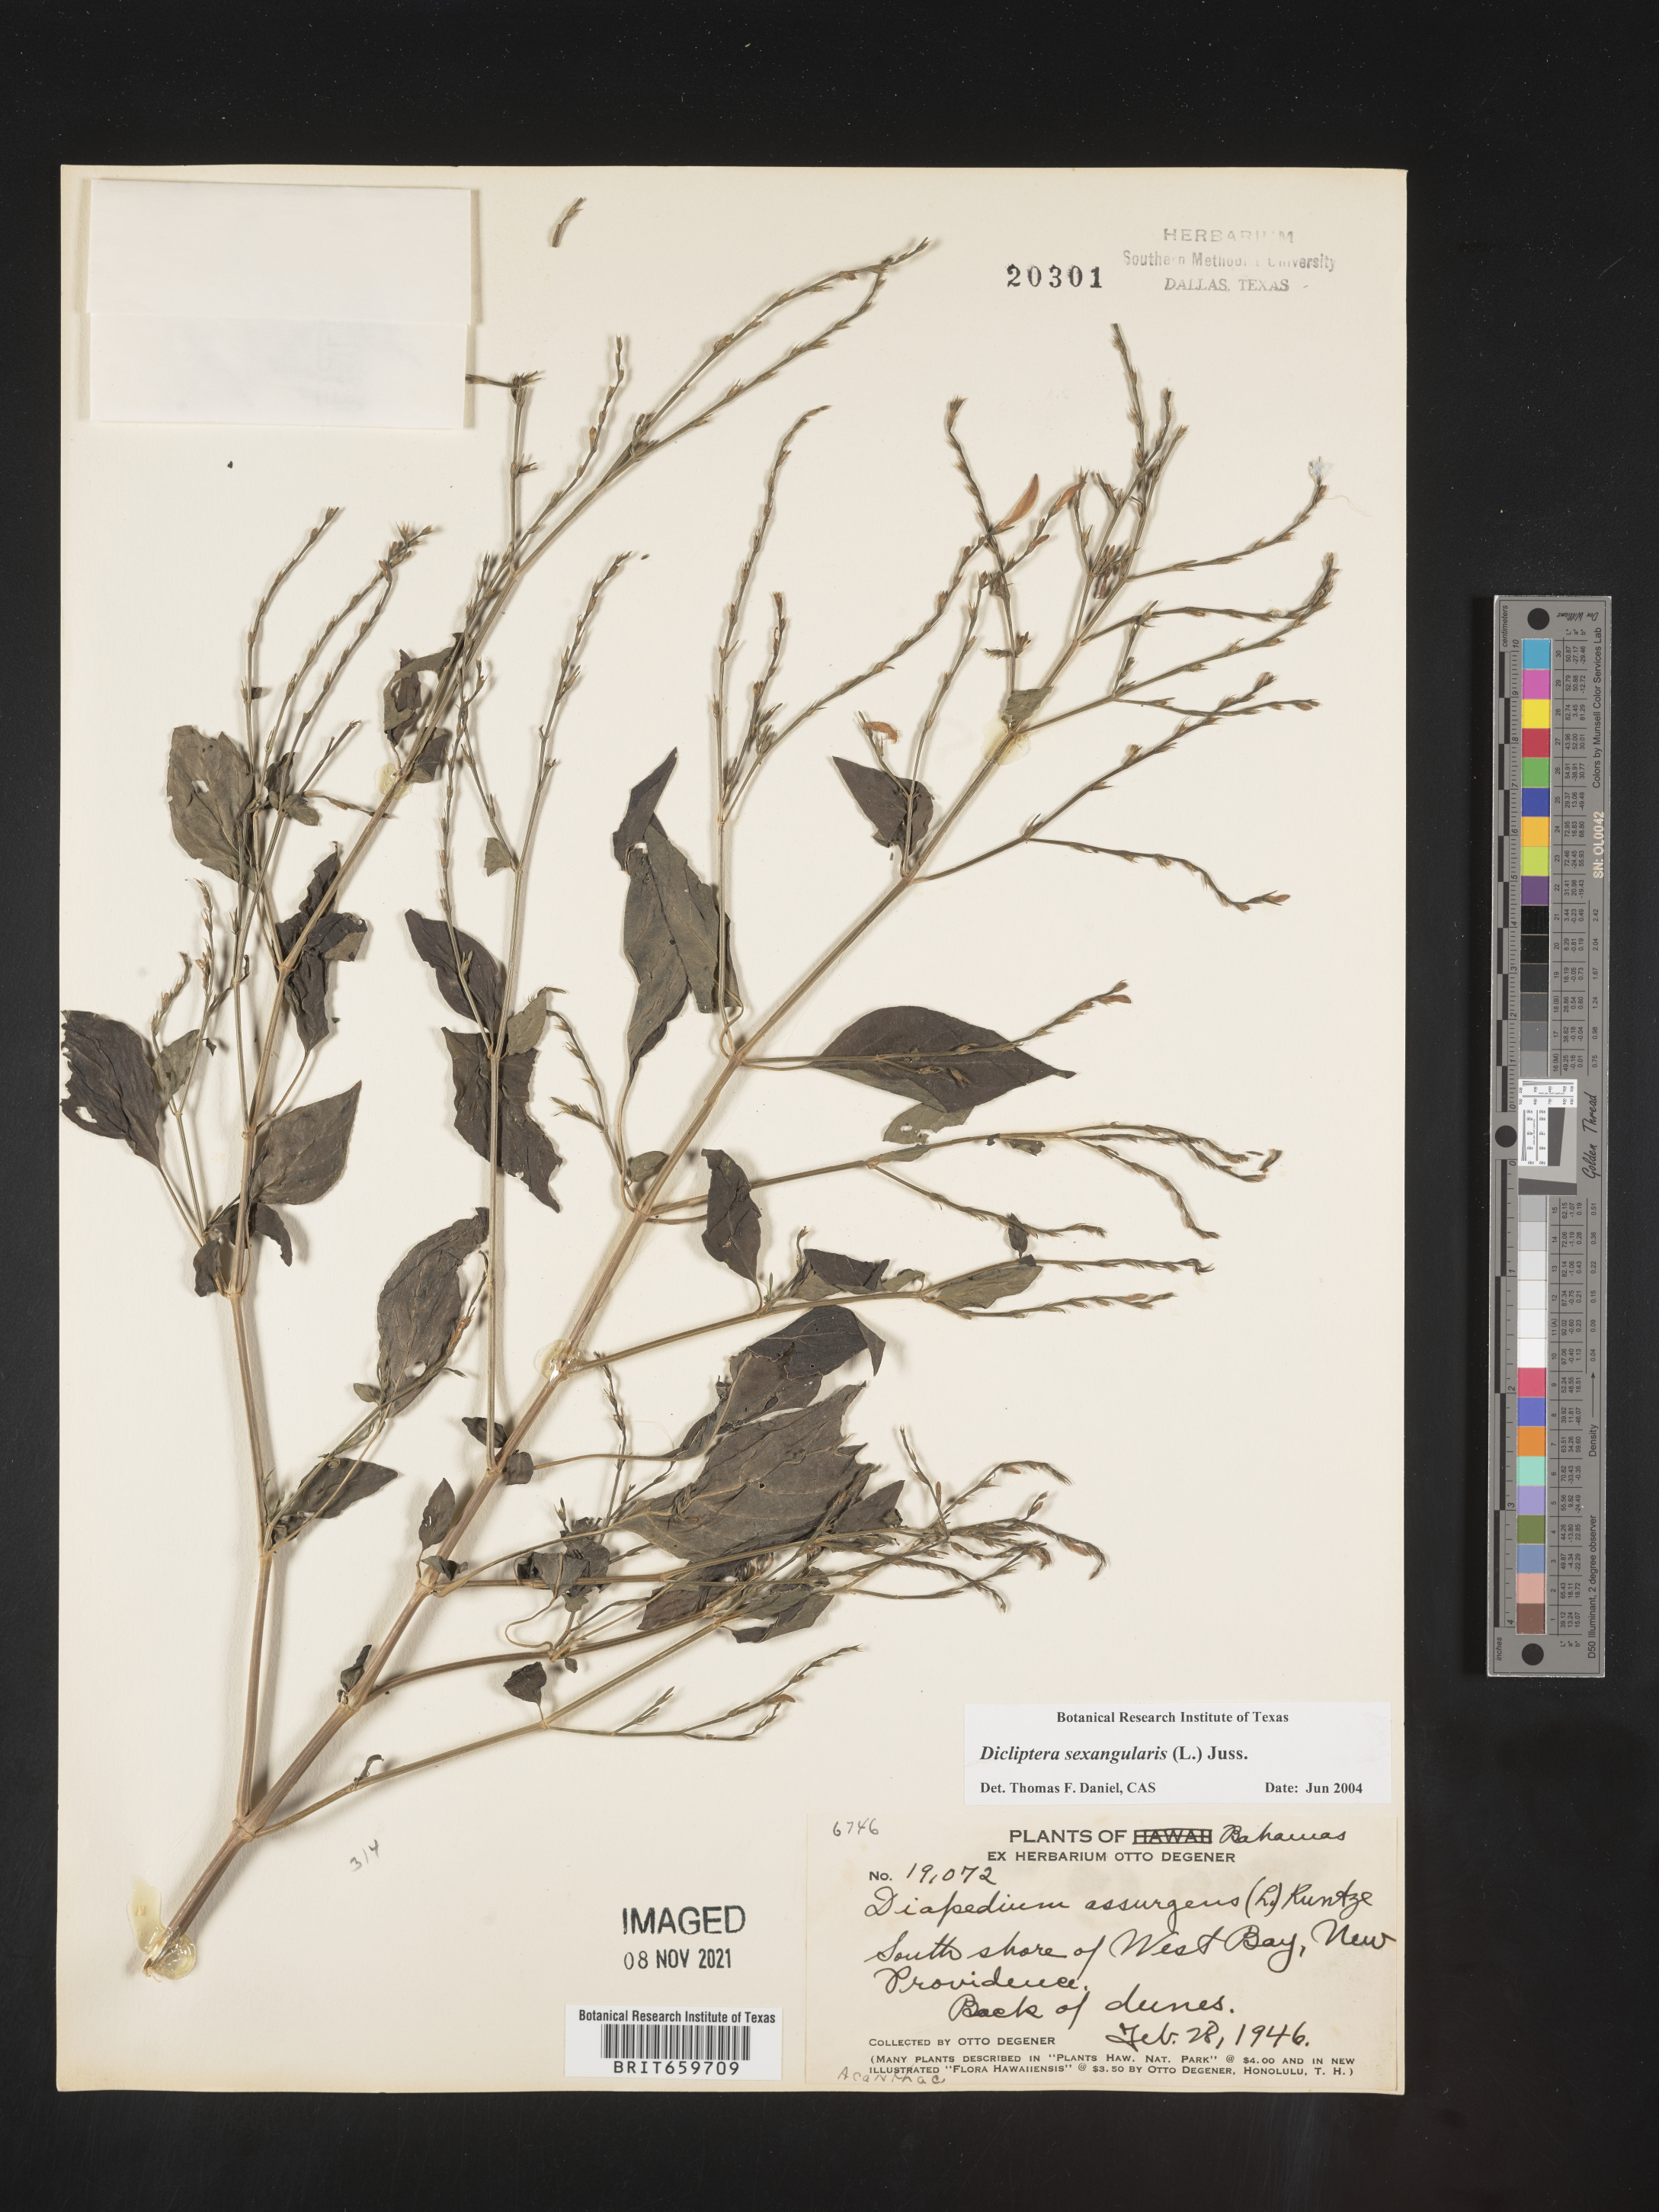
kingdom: Plantae
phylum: Tracheophyta
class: Magnoliopsida
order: Lamiales
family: Acanthaceae
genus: Dicliptera
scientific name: Dicliptera
